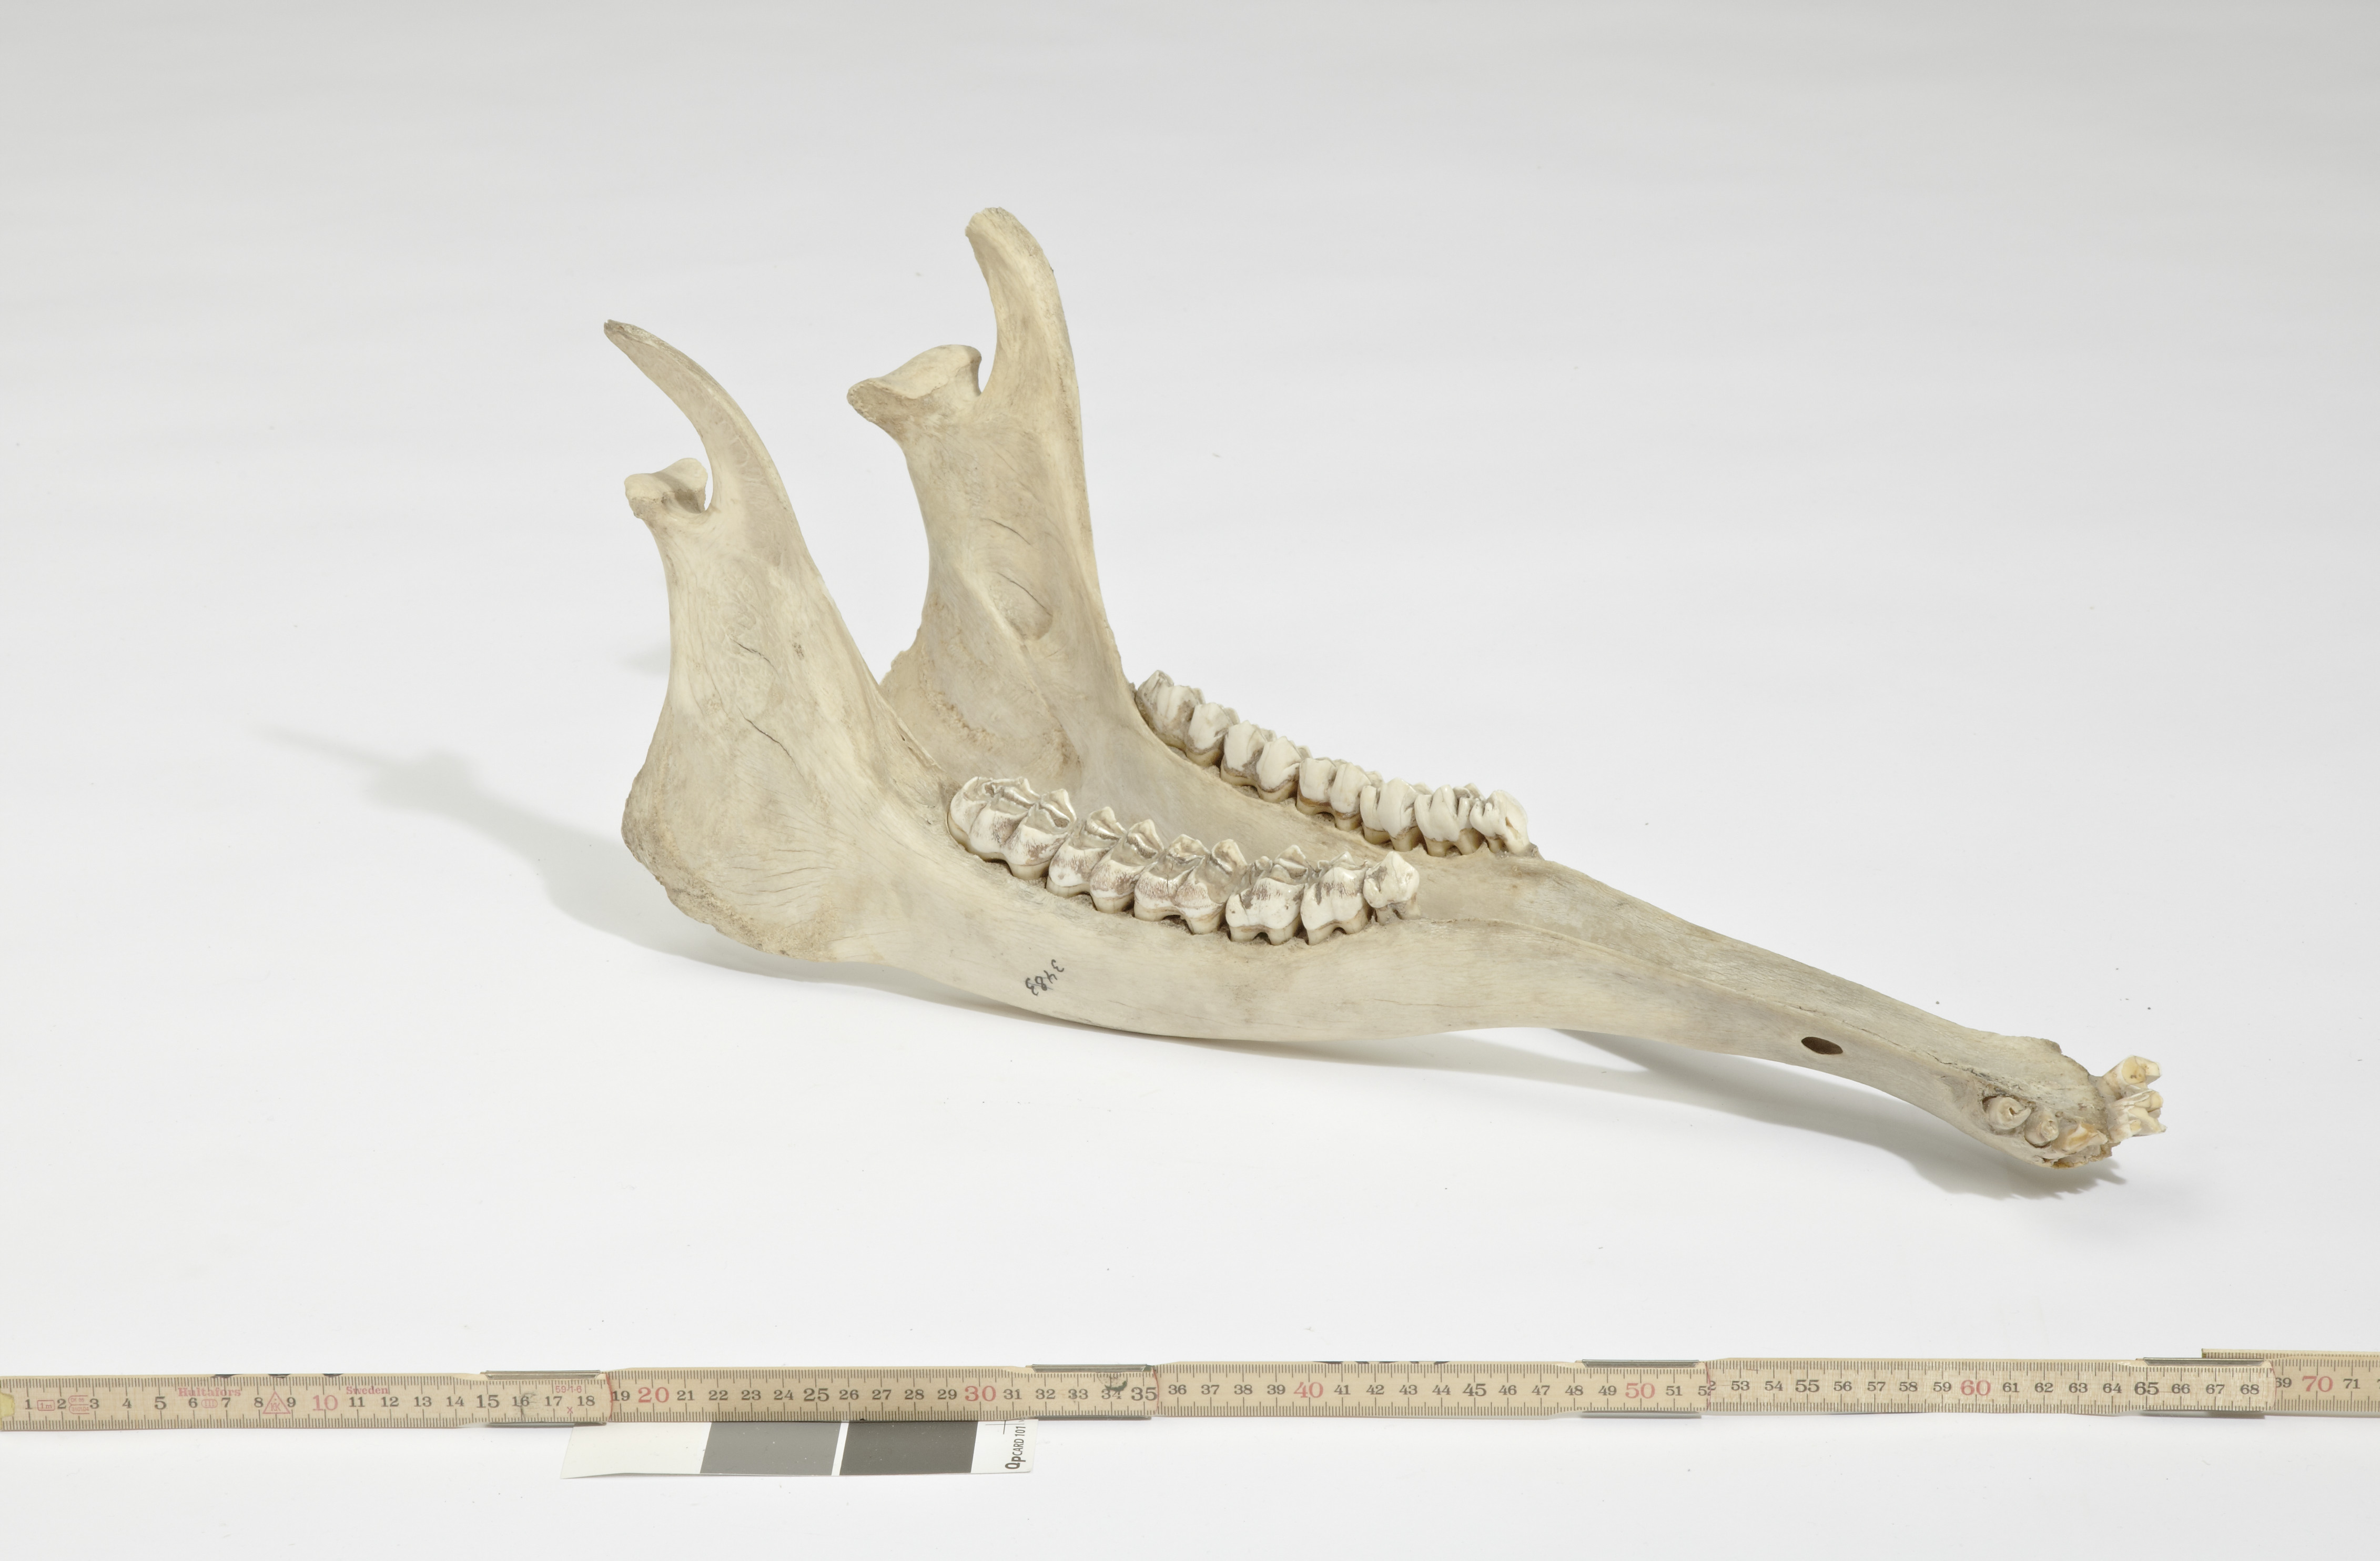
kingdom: Animalia
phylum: Chordata
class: Mammalia
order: Artiodactyla
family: Giraffidae
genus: Giraffa
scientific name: Giraffa camelopardalis
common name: Giraffe
